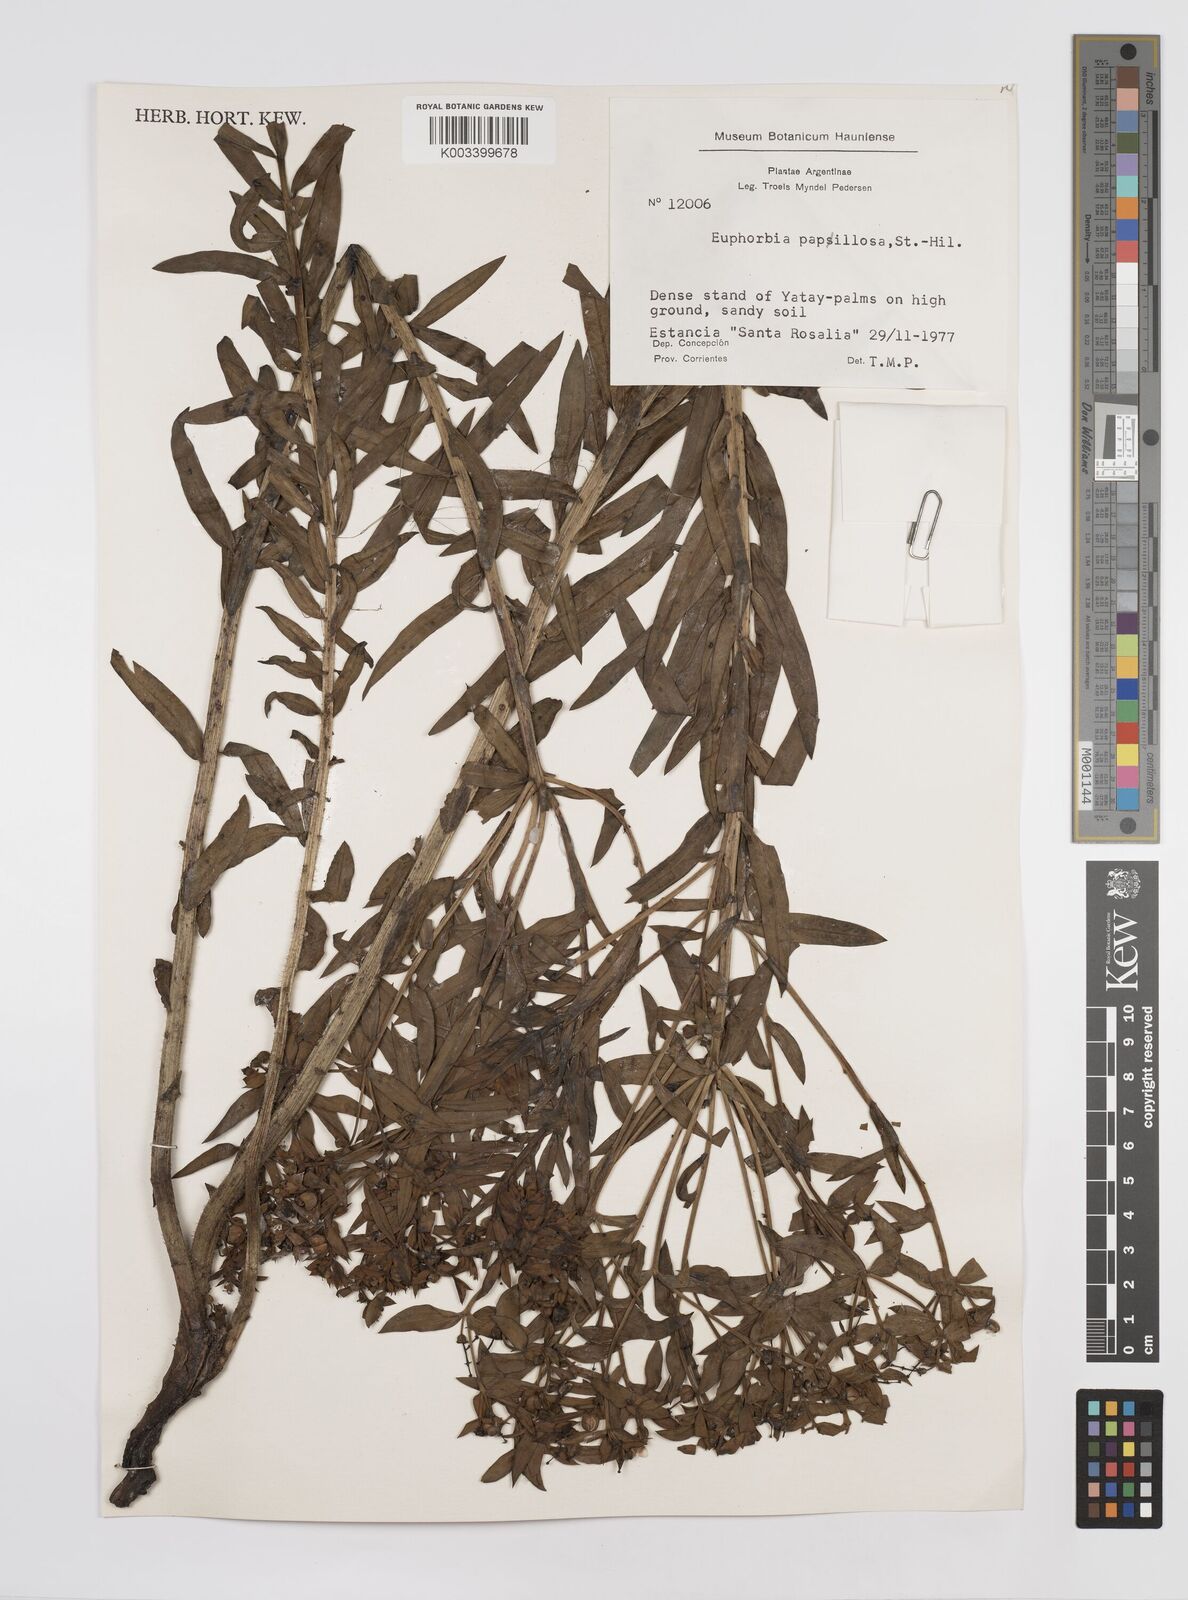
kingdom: Plantae
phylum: Tracheophyta
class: Magnoliopsida
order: Malpighiales
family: Euphorbiaceae
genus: Euphorbia
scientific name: Euphorbia
